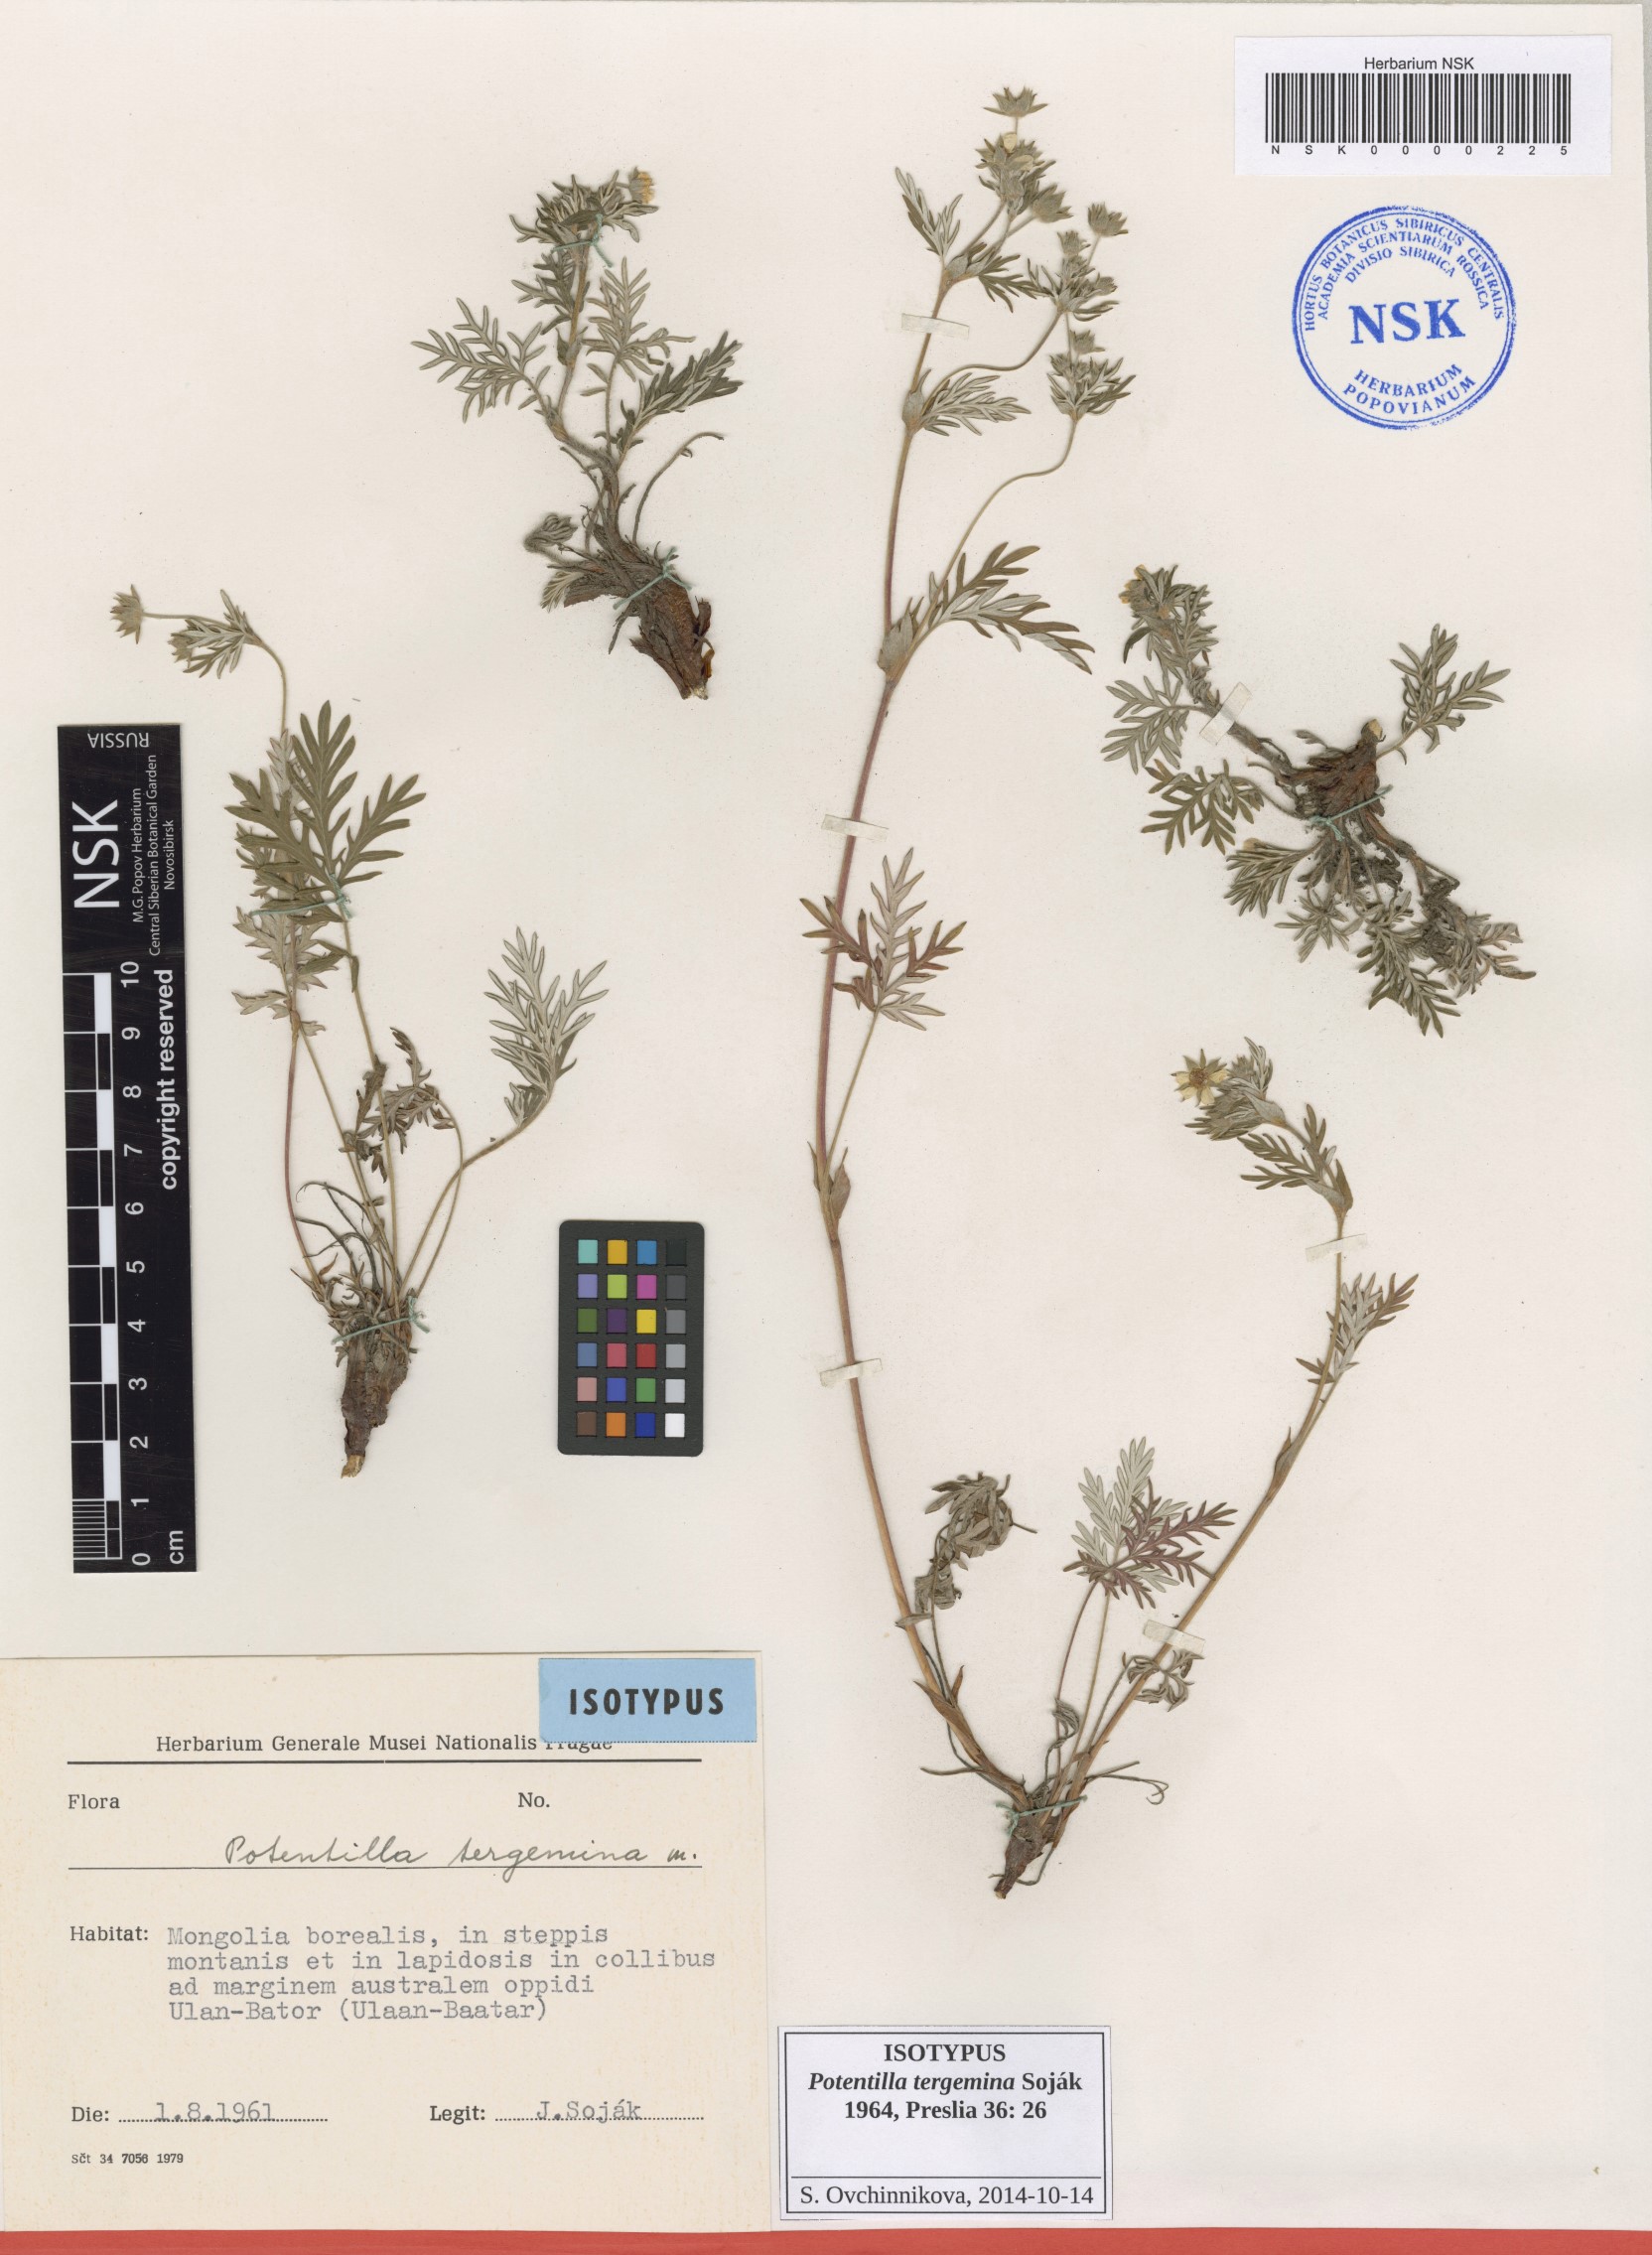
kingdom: Plantae
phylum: Tracheophyta
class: Magnoliopsida
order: Rosales
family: Rosaceae
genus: Potentilla
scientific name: Potentilla tergemina
